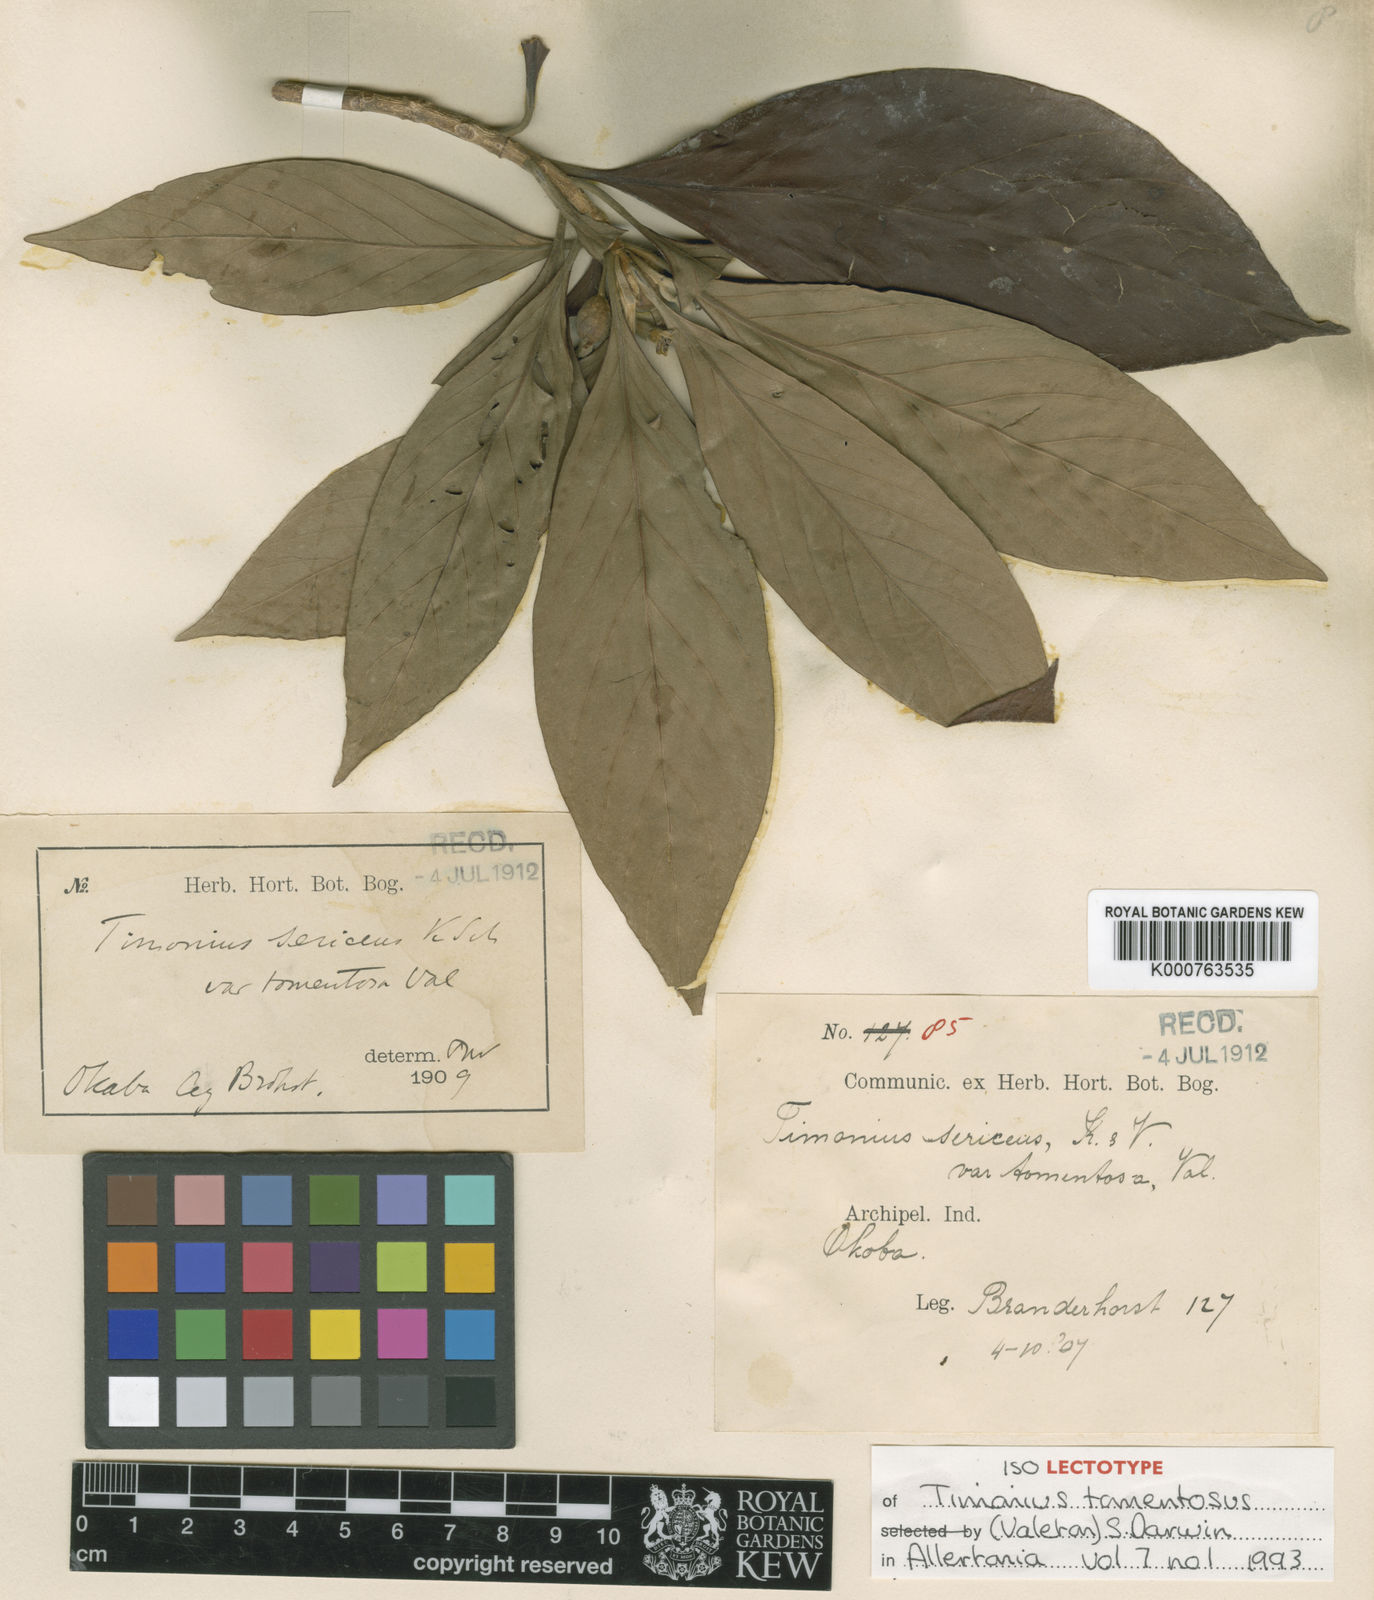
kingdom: Plantae
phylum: Tracheophyta
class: Magnoliopsida
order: Gentianales
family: Rubiaceae
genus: Timonius
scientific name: Timonius tomentosus
